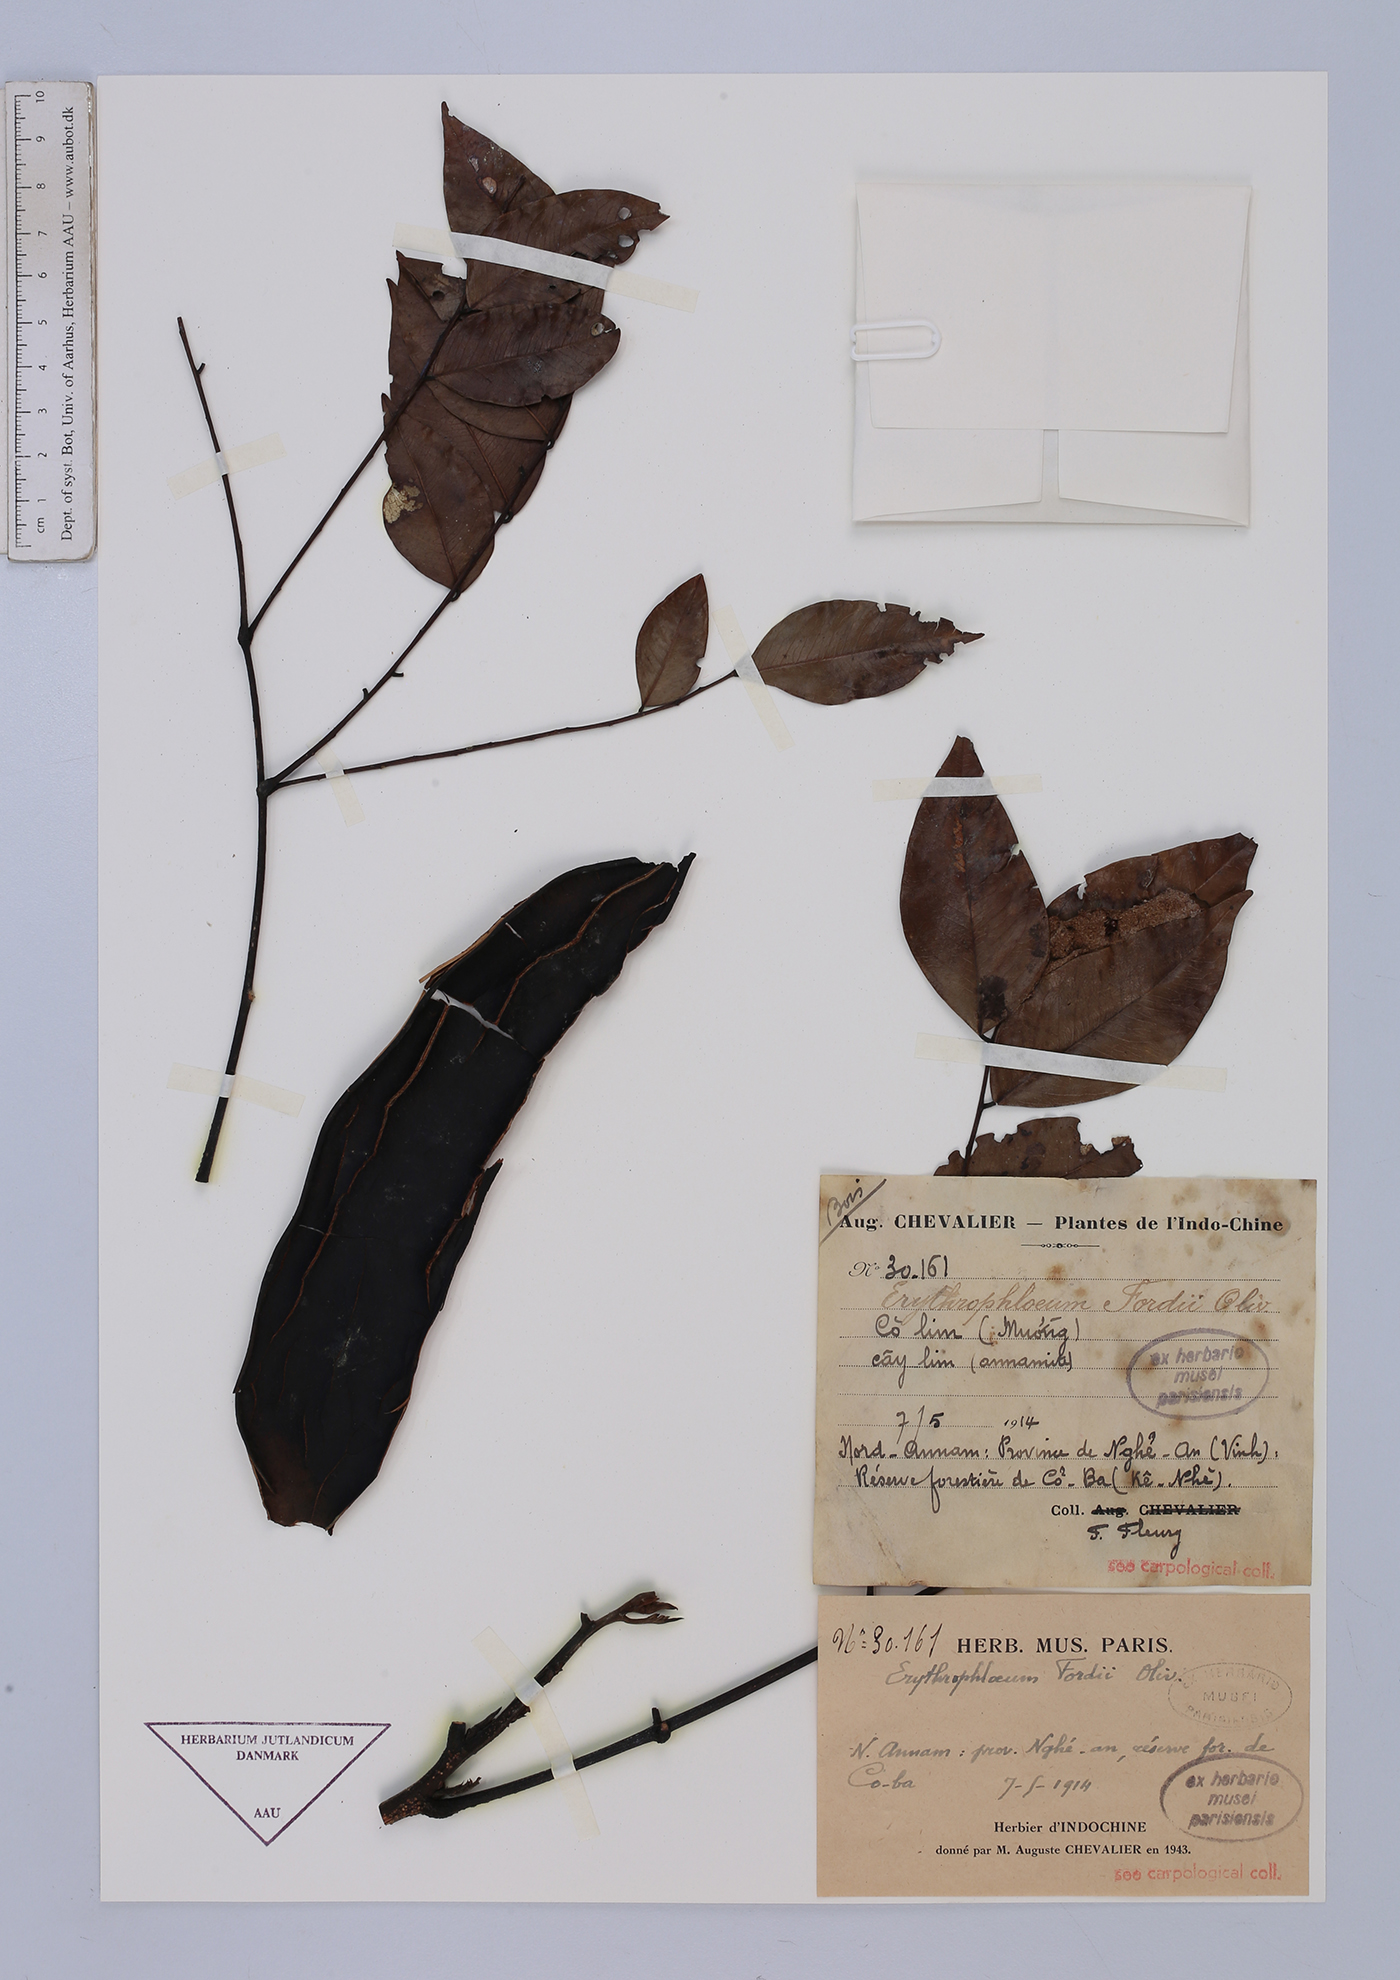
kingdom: Plantae
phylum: Tracheophyta
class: Magnoliopsida
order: Fabales
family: Fabaceae
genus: Erythrophleum
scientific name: Erythrophleum fordii
